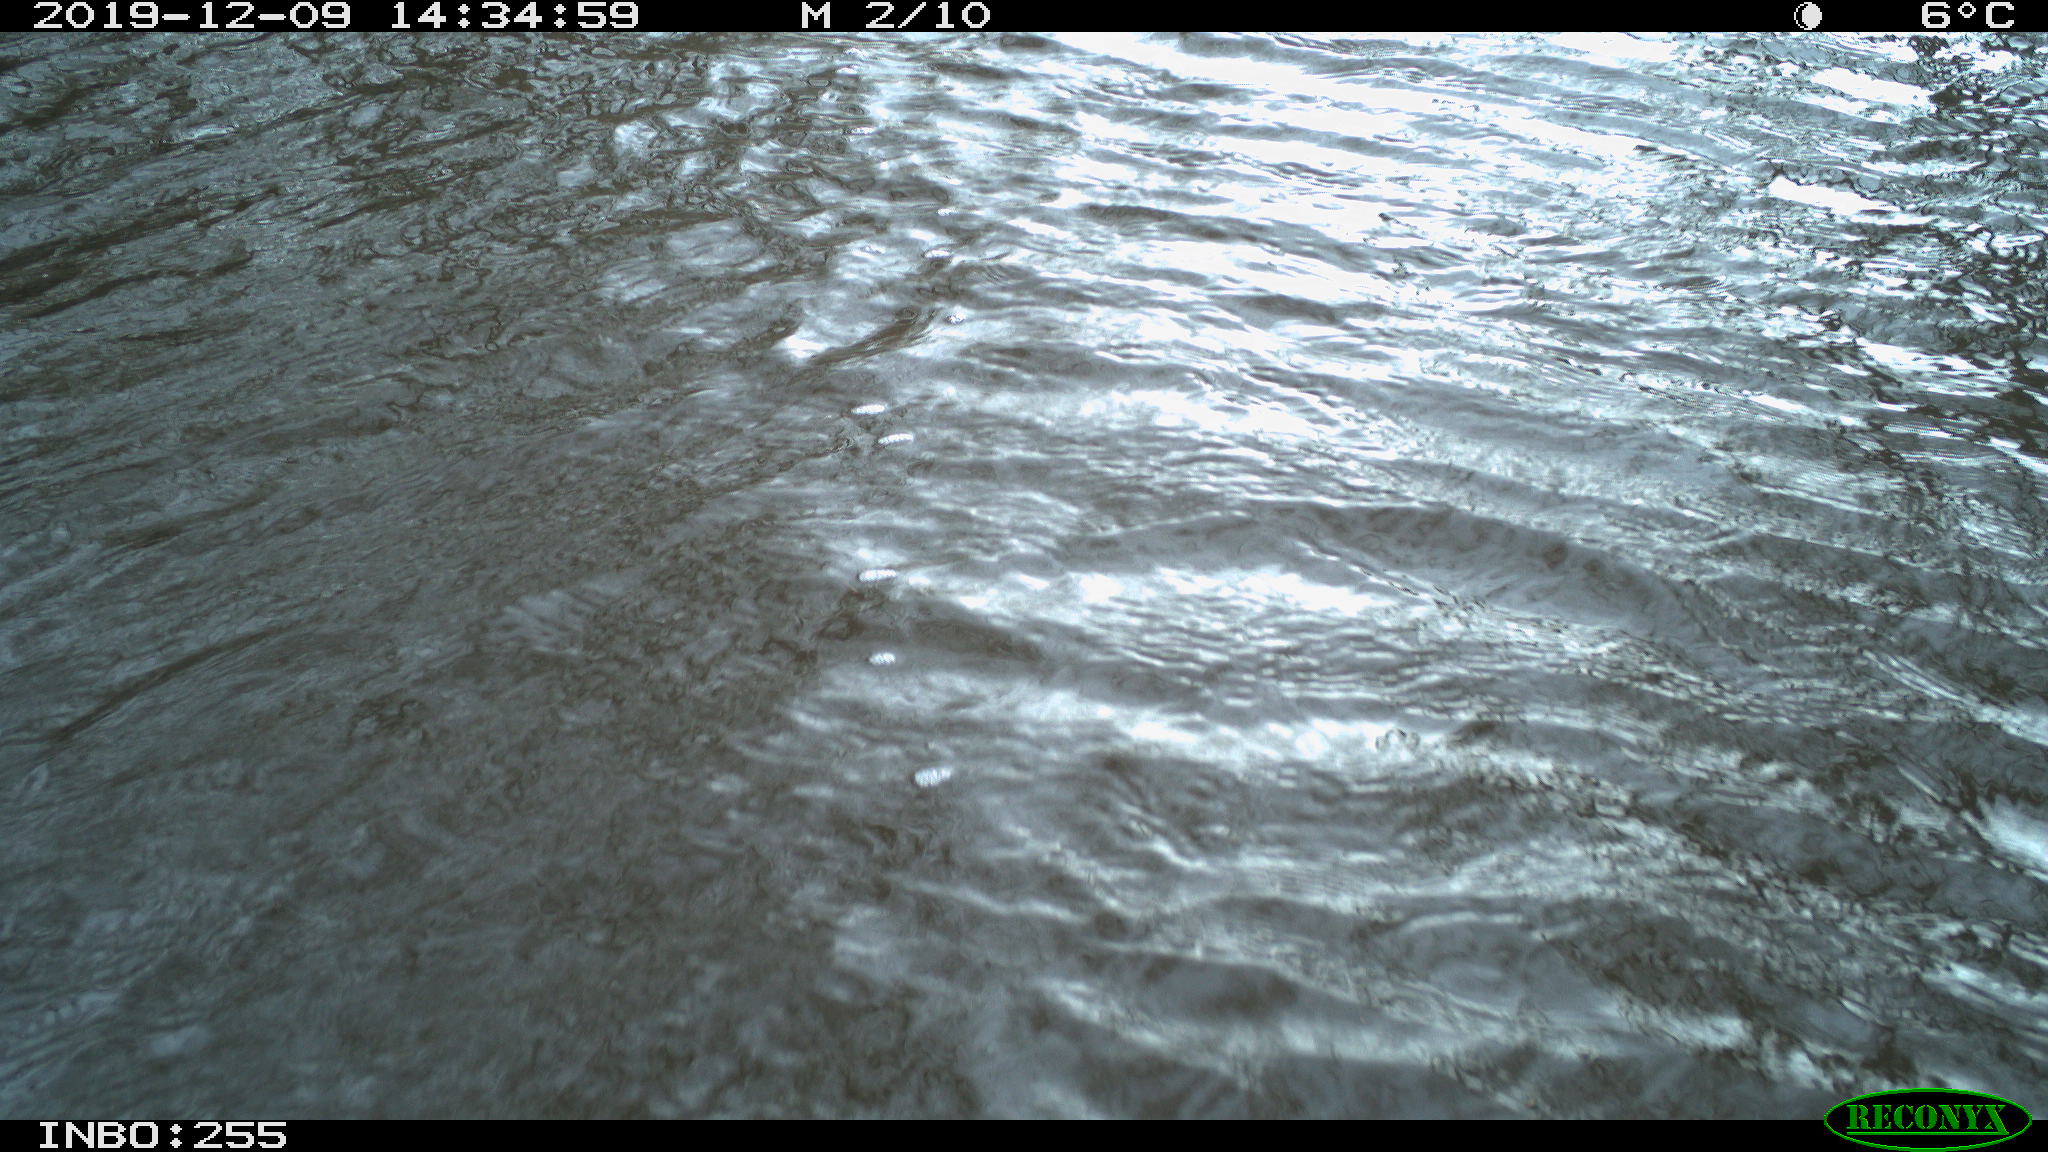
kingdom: Animalia
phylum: Chordata
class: Aves
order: Gruiformes
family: Rallidae
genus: Gallinula
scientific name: Gallinula chloropus
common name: Common moorhen
